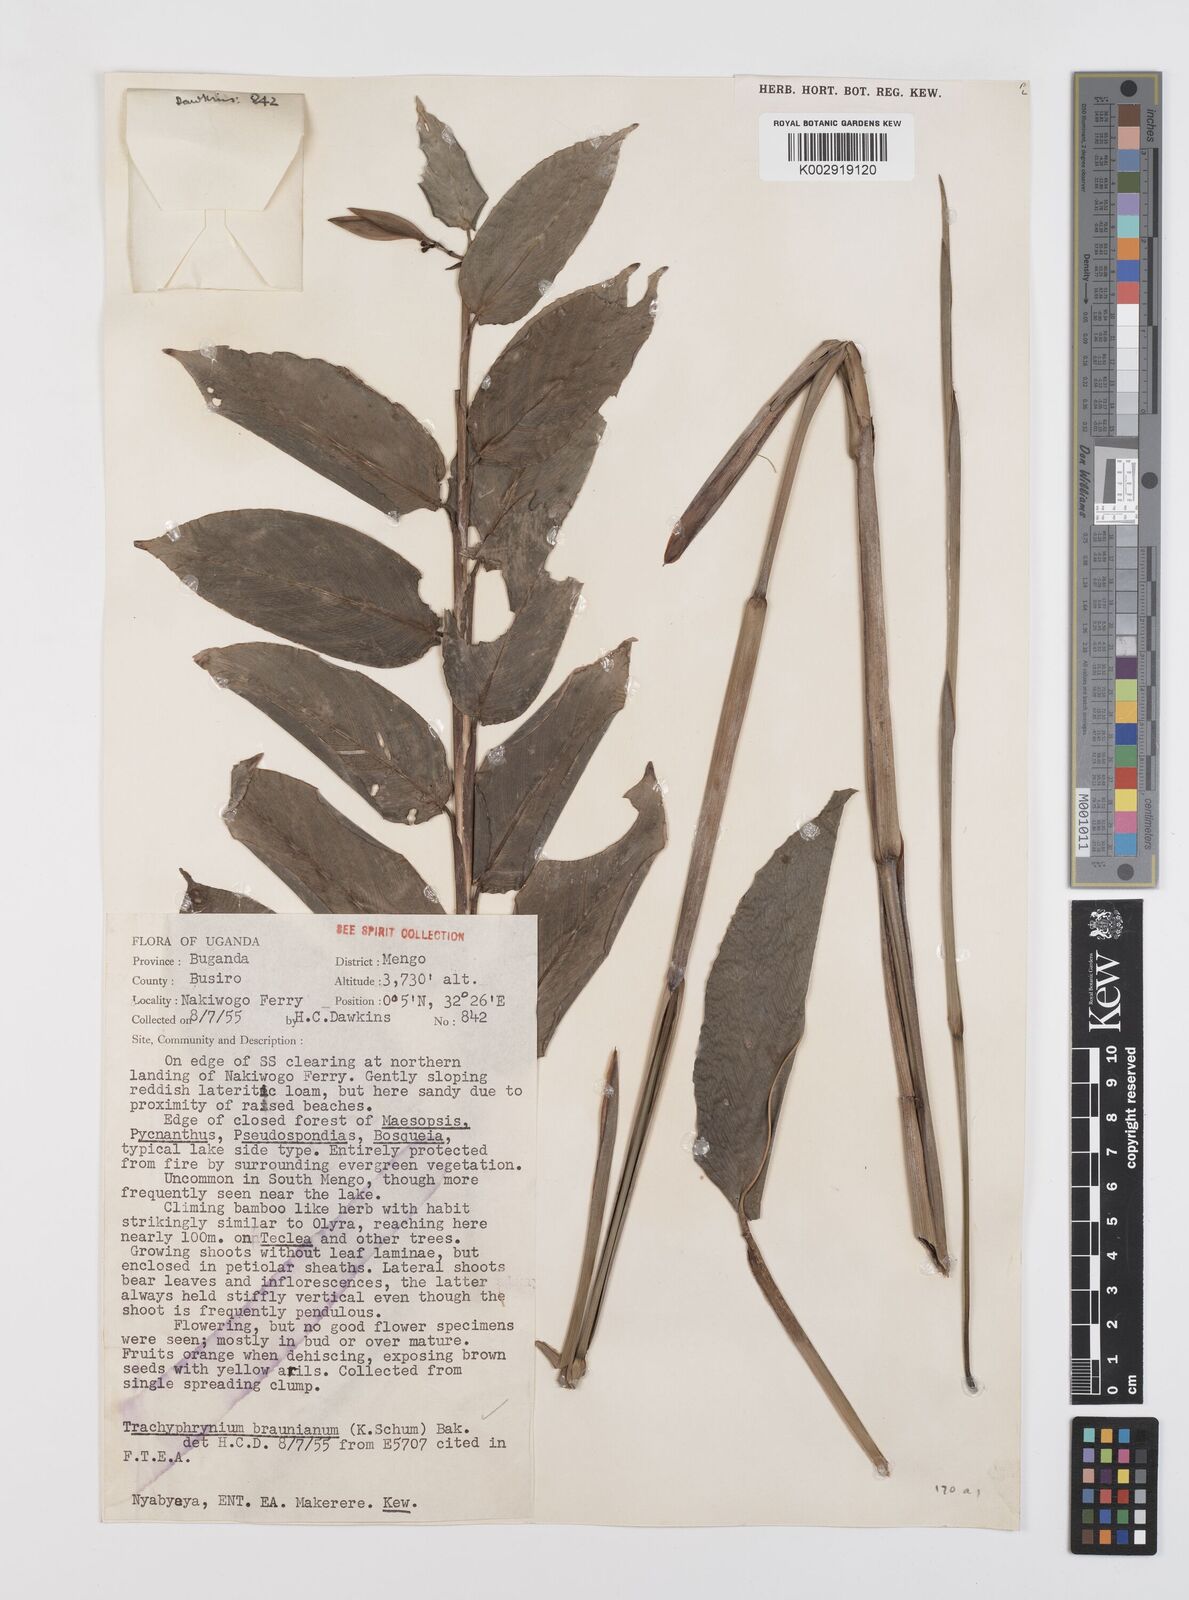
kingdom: Plantae
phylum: Tracheophyta
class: Liliopsida
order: Zingiberales
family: Marantaceae
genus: Trachyphrynium
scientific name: Trachyphrynium braunianum
